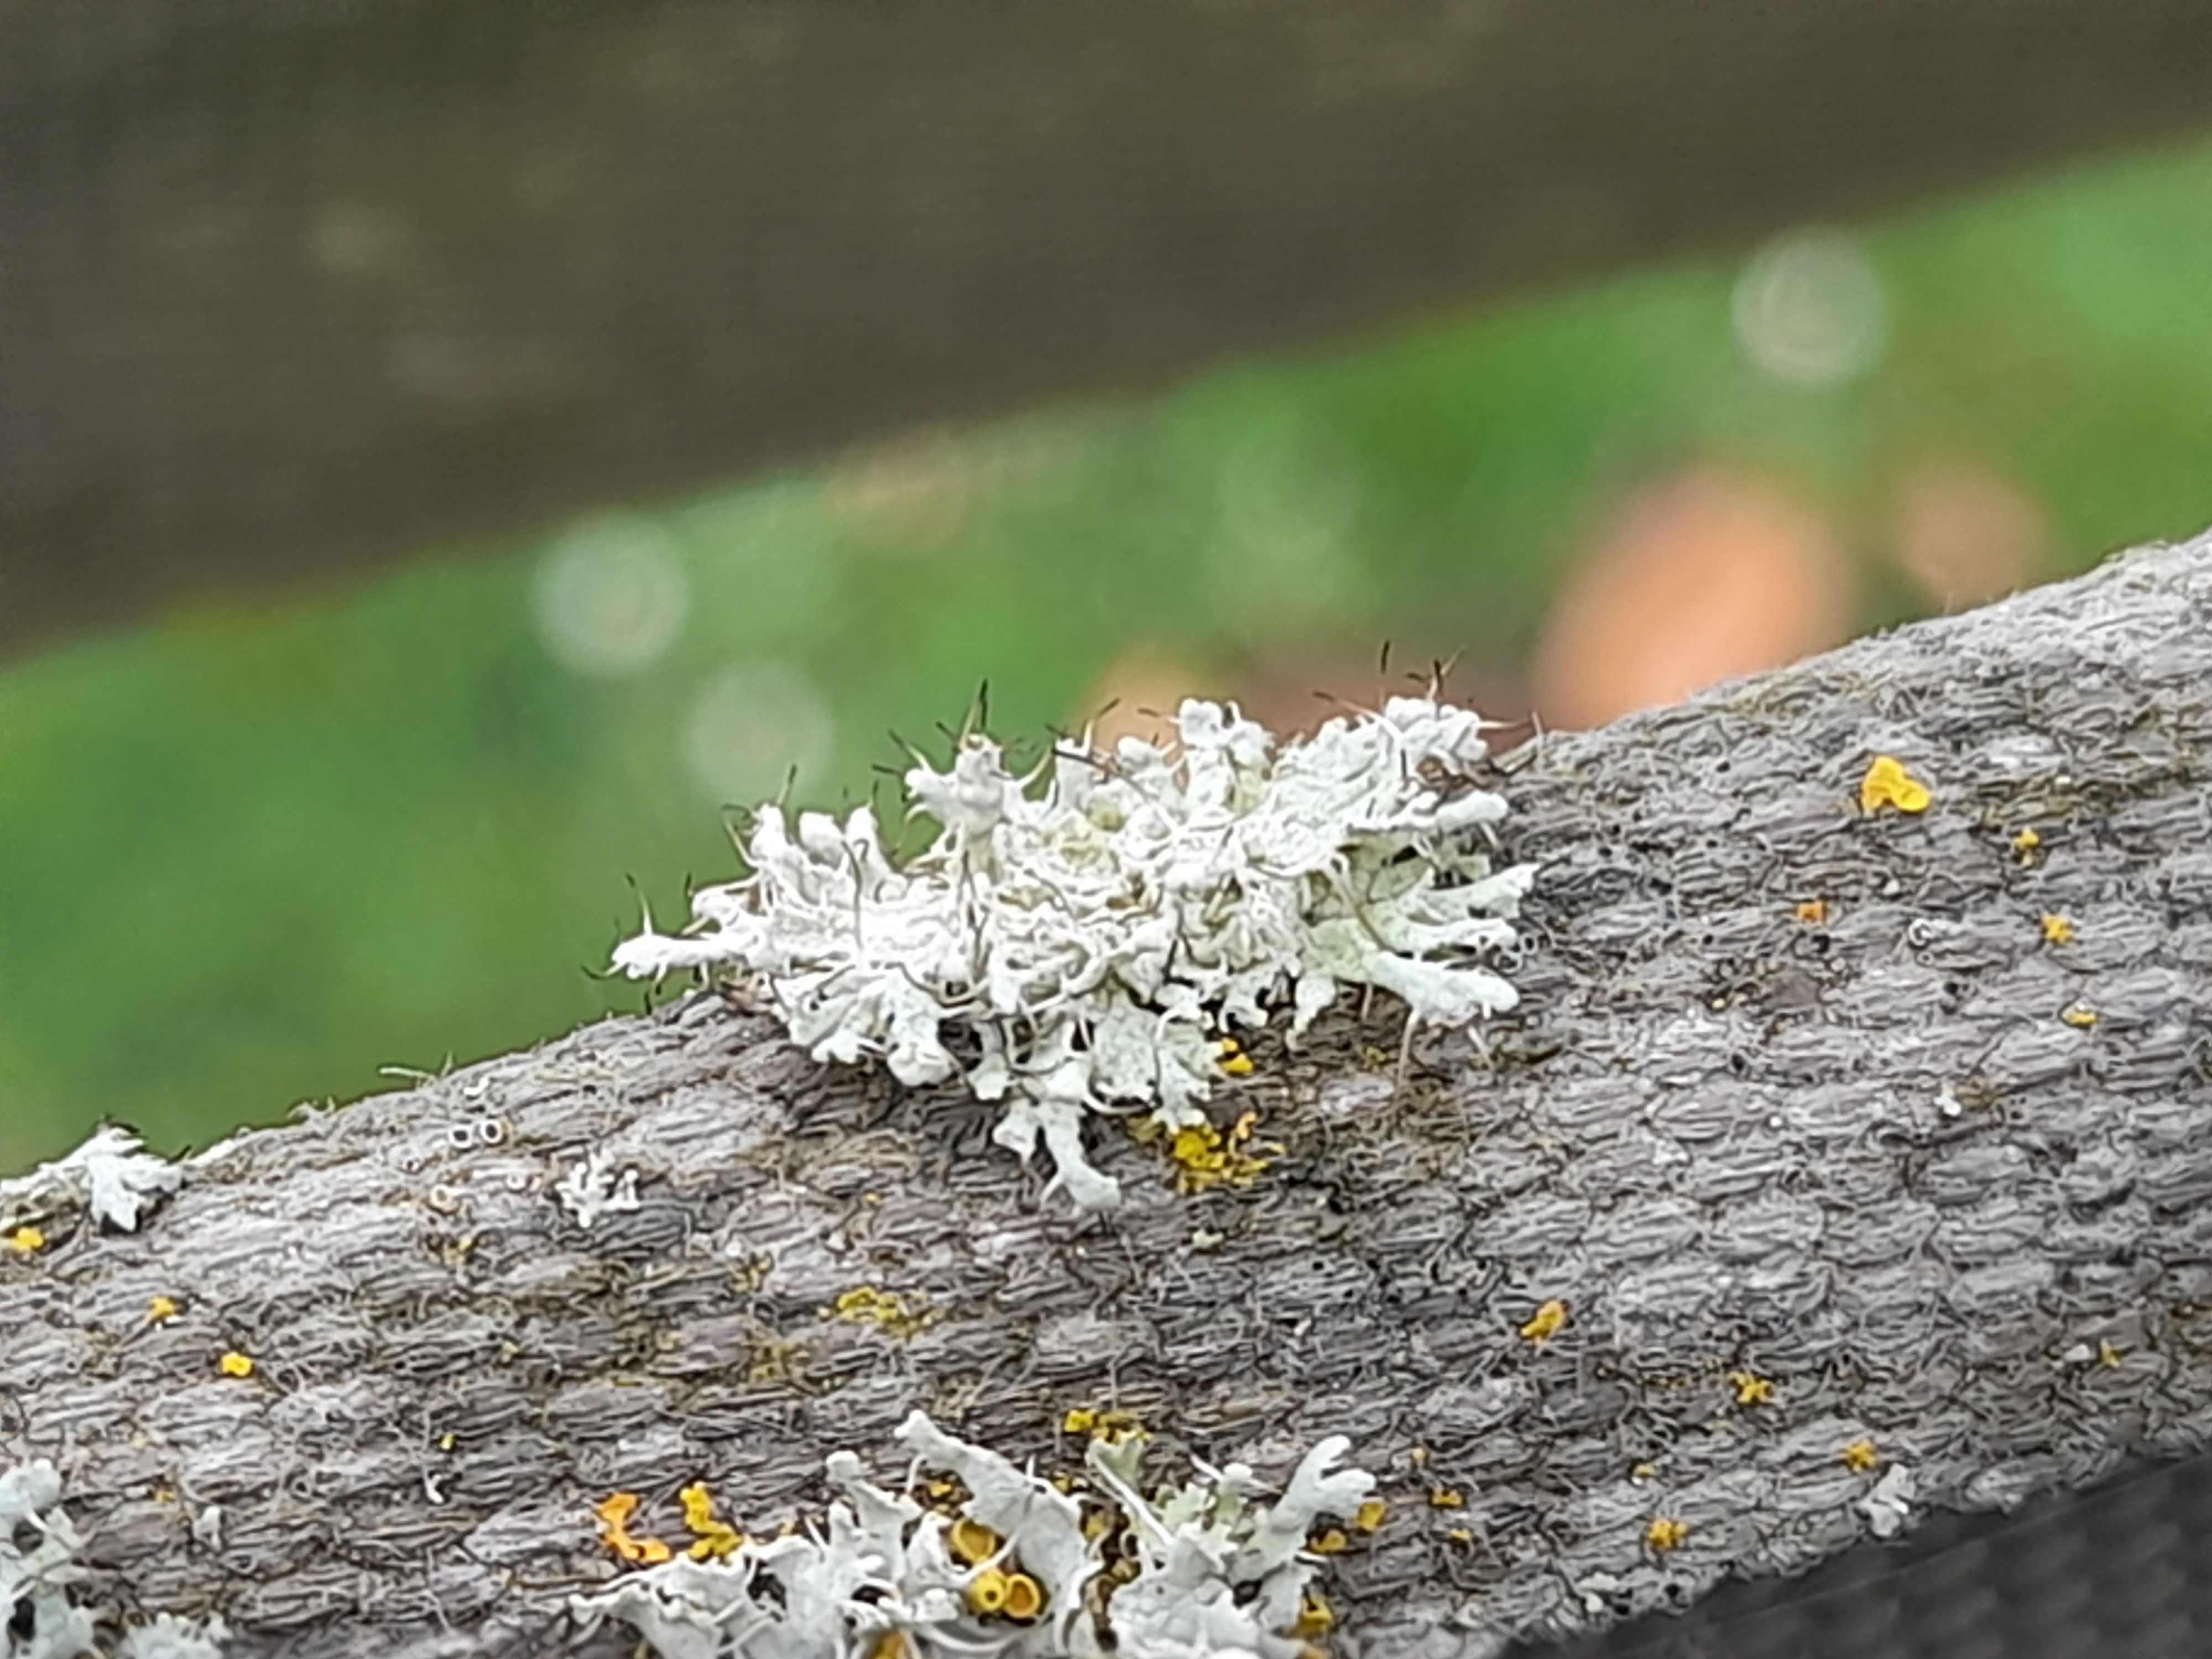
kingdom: Fungi
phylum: Ascomycota
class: Lecanoromycetes
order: Caliciales
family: Physciaceae
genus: Physcia
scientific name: Physcia adscendens
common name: hætte-rosetlav
